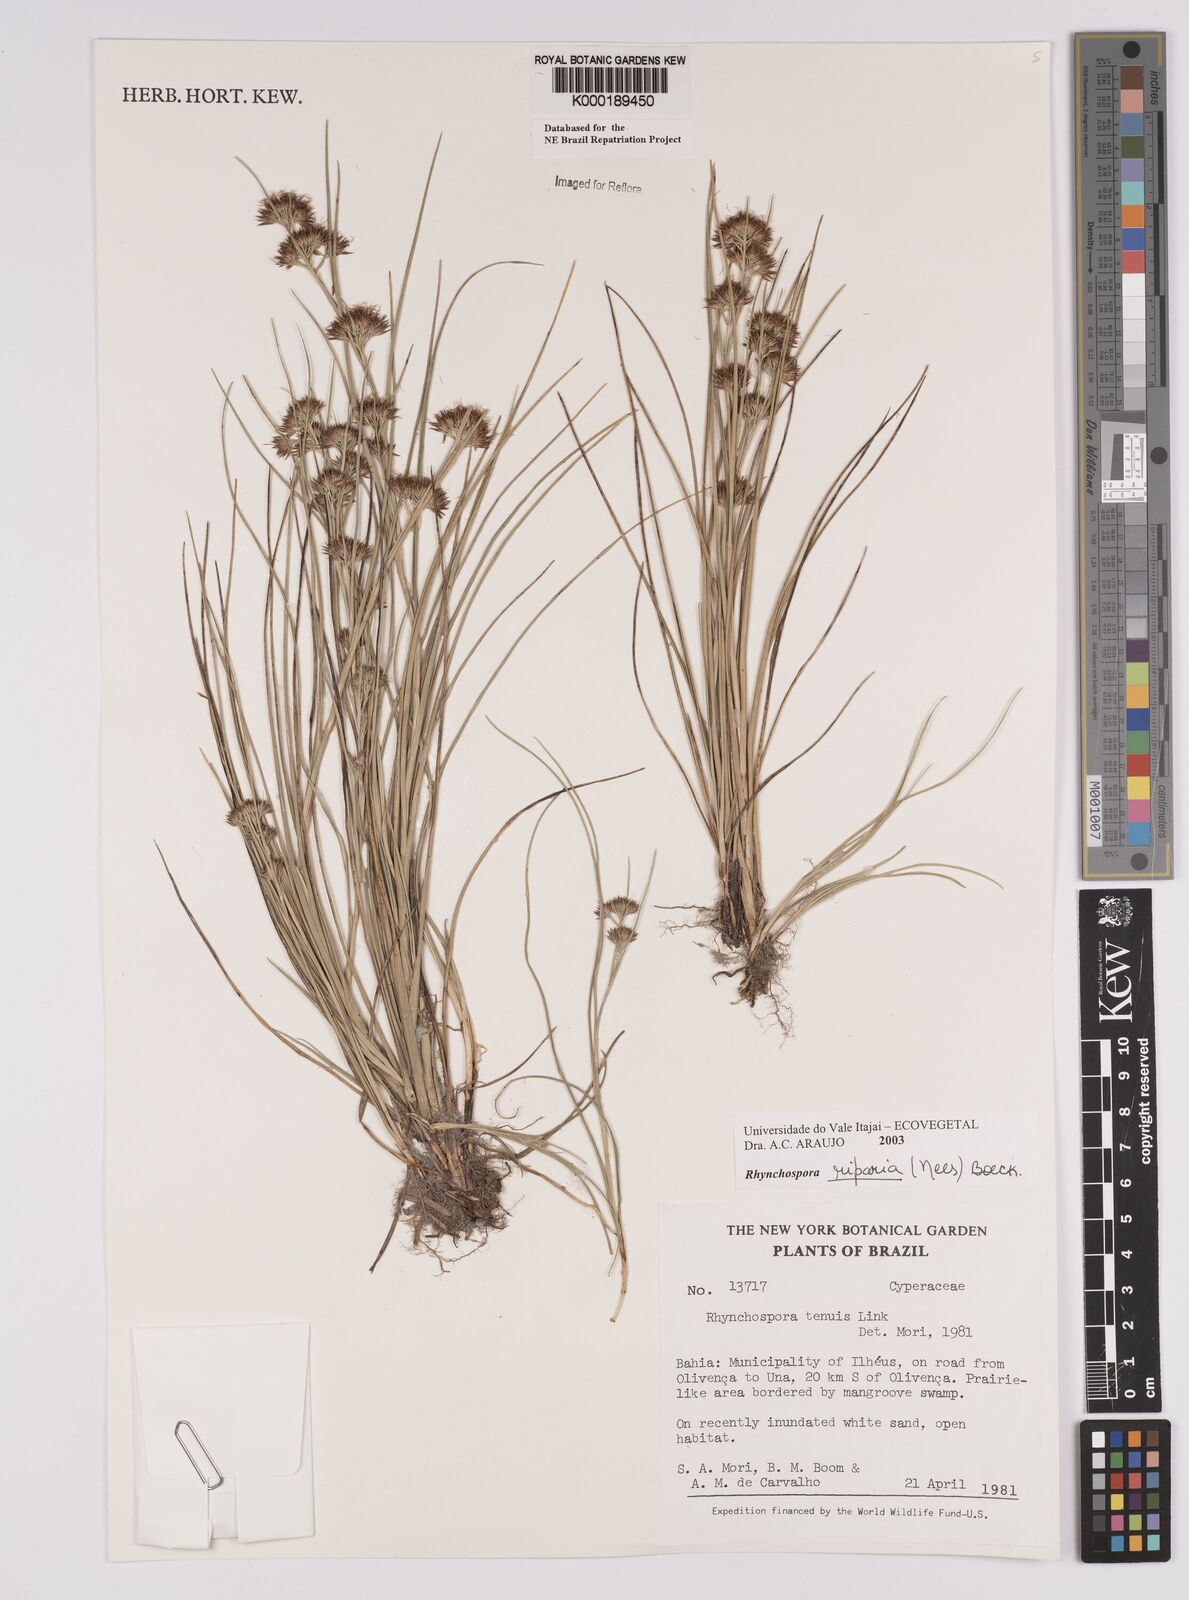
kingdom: Plantae
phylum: Tracheophyta
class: Liliopsida
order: Poales
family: Cyperaceae
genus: Rhynchospora
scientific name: Rhynchospora riparia
